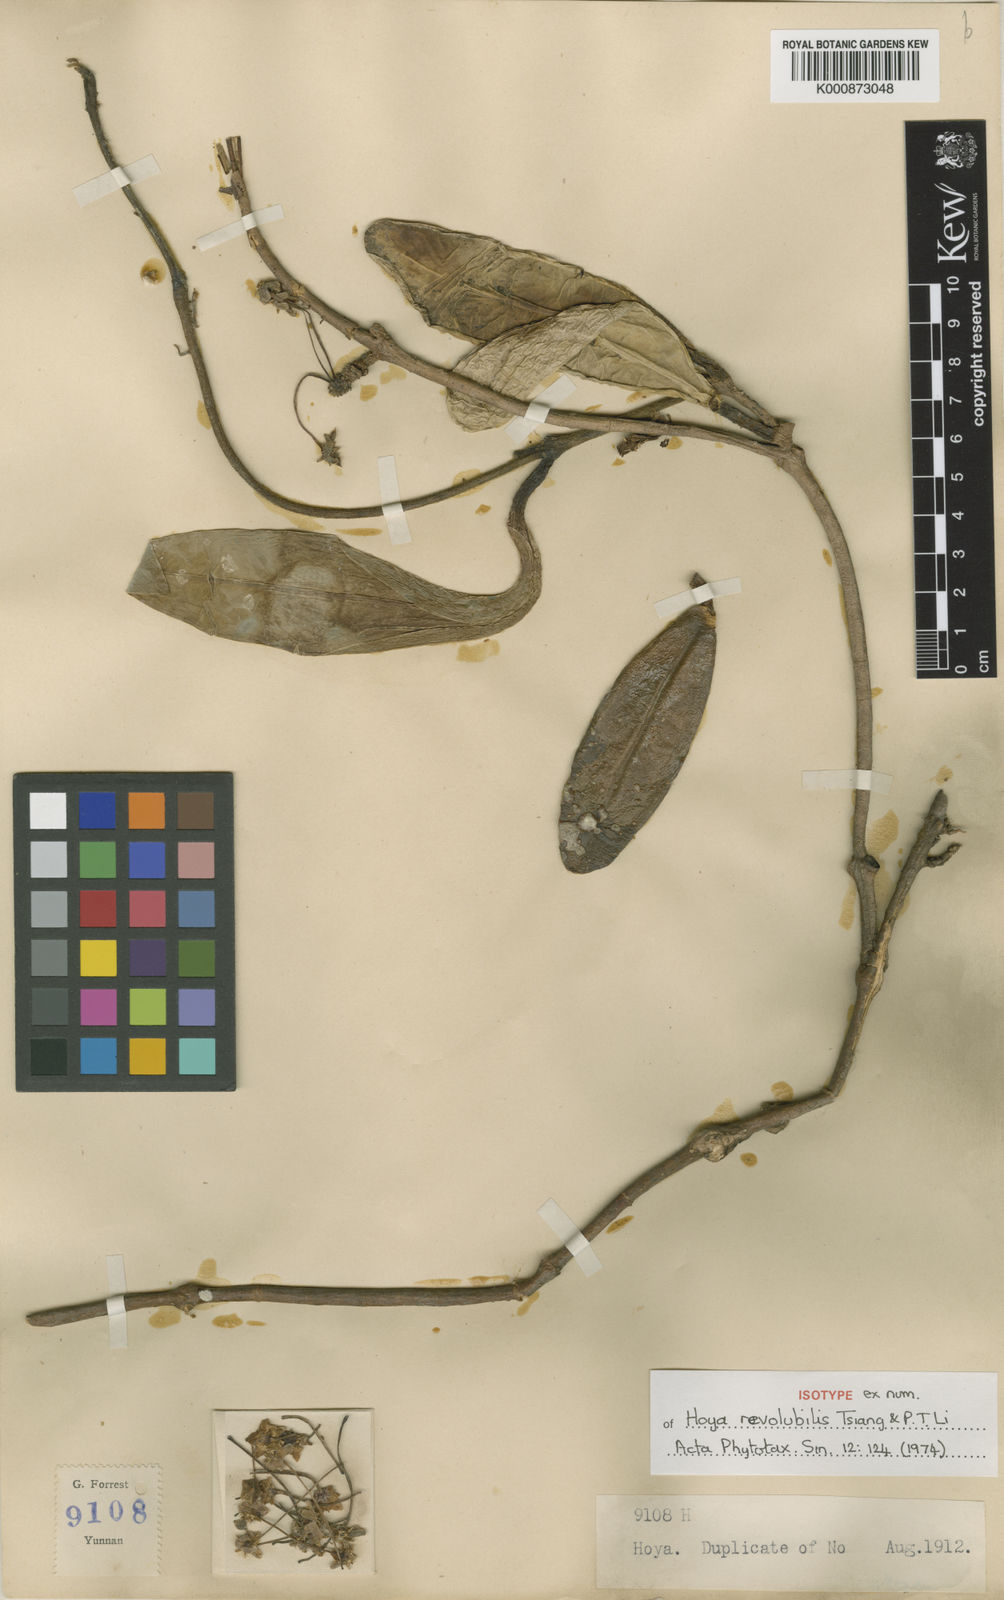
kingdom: Plantae
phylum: Tracheophyta
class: Magnoliopsida
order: Gentianales
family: Apocynaceae
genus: Hoya
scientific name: Hoya oreogena
